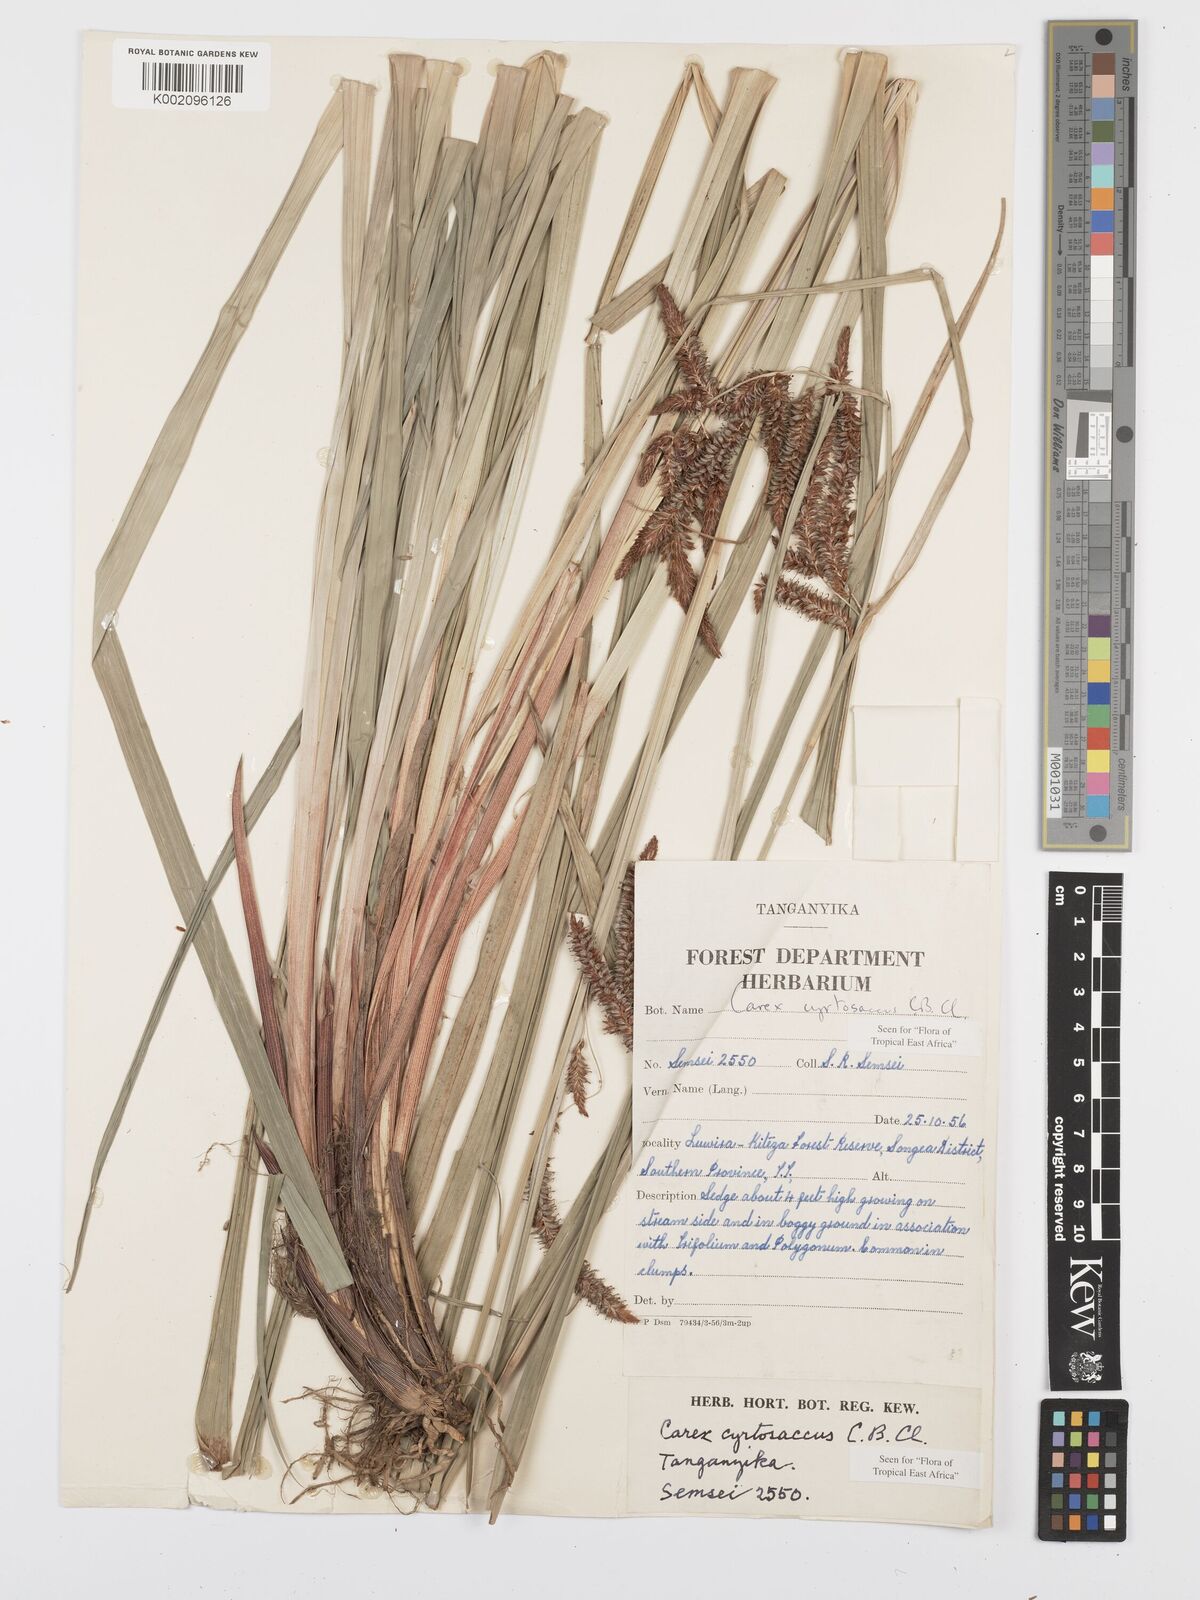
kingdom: Plantae
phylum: Tracheophyta
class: Liliopsida
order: Poales
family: Cyperaceae
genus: Carex
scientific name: Carex vallis-rosetto
